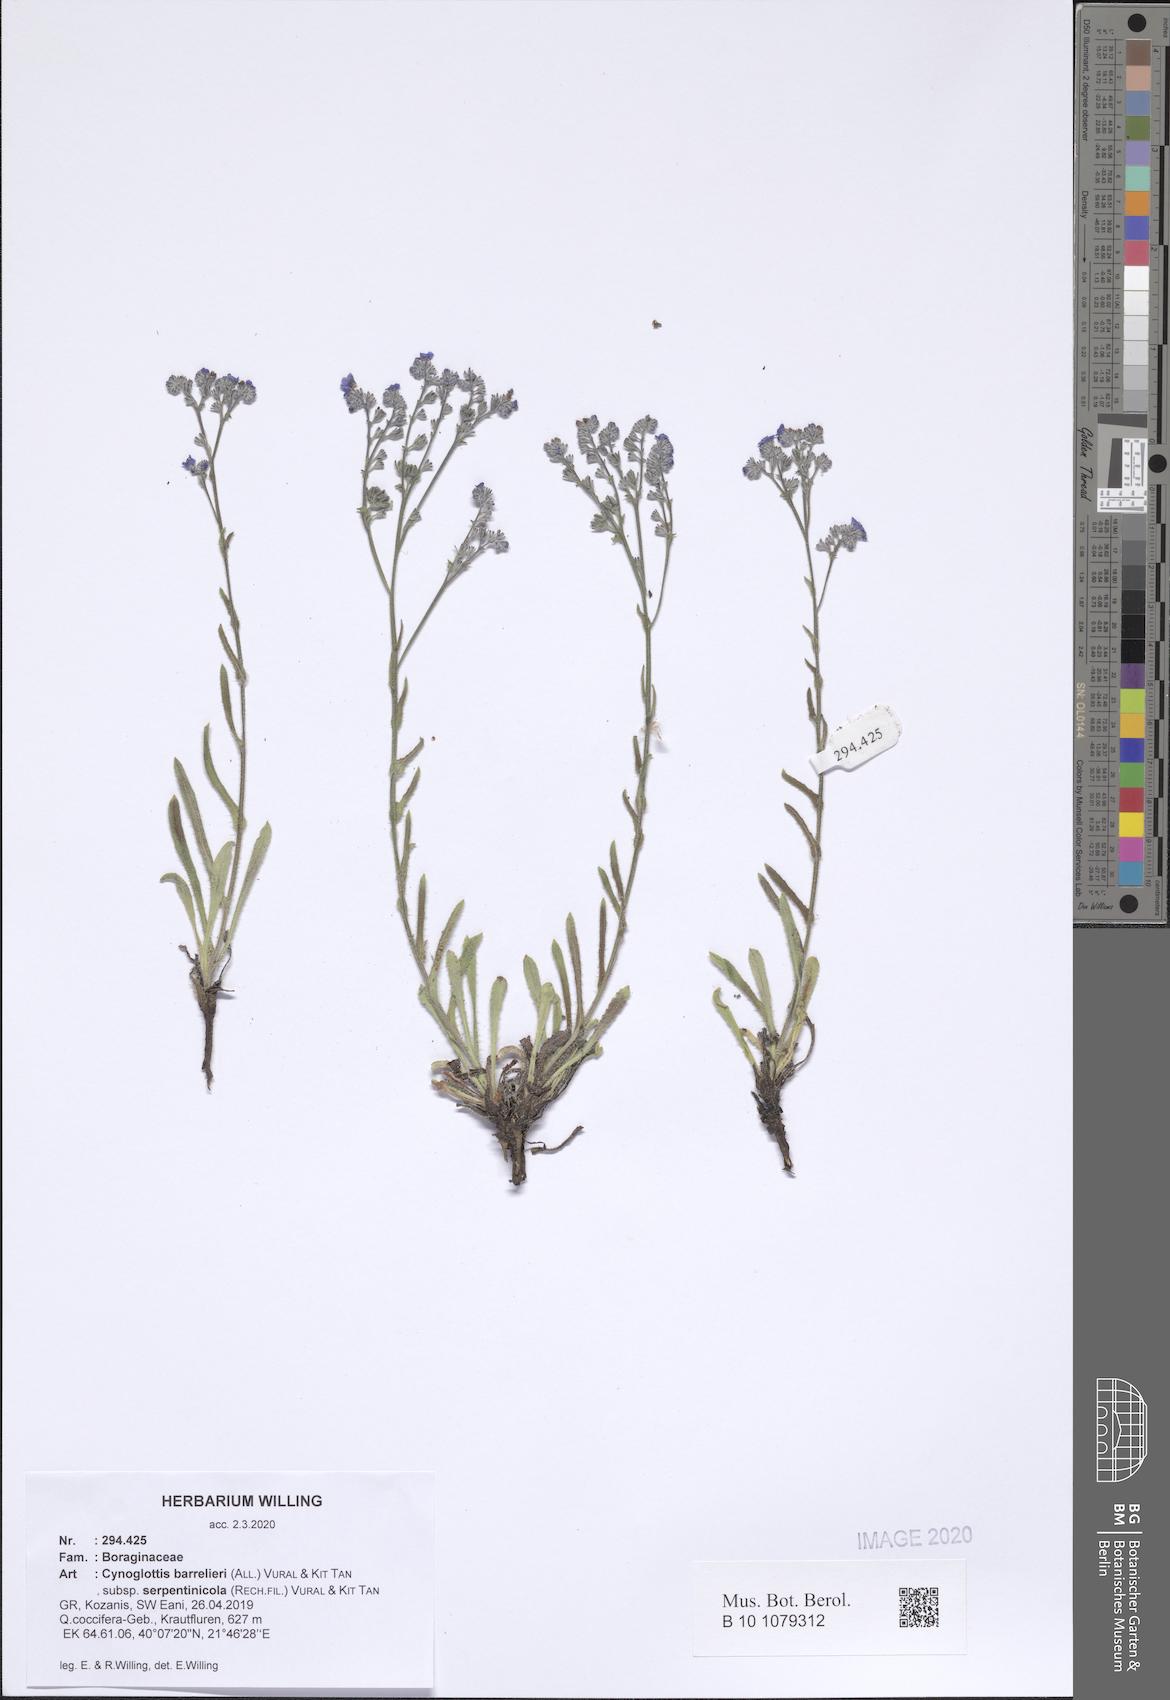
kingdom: Plantae
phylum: Tracheophyta
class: Magnoliopsida
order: Boraginales
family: Boraginaceae
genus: Cynoglottis
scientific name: Cynoglottis barrelieri
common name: False alkanet
